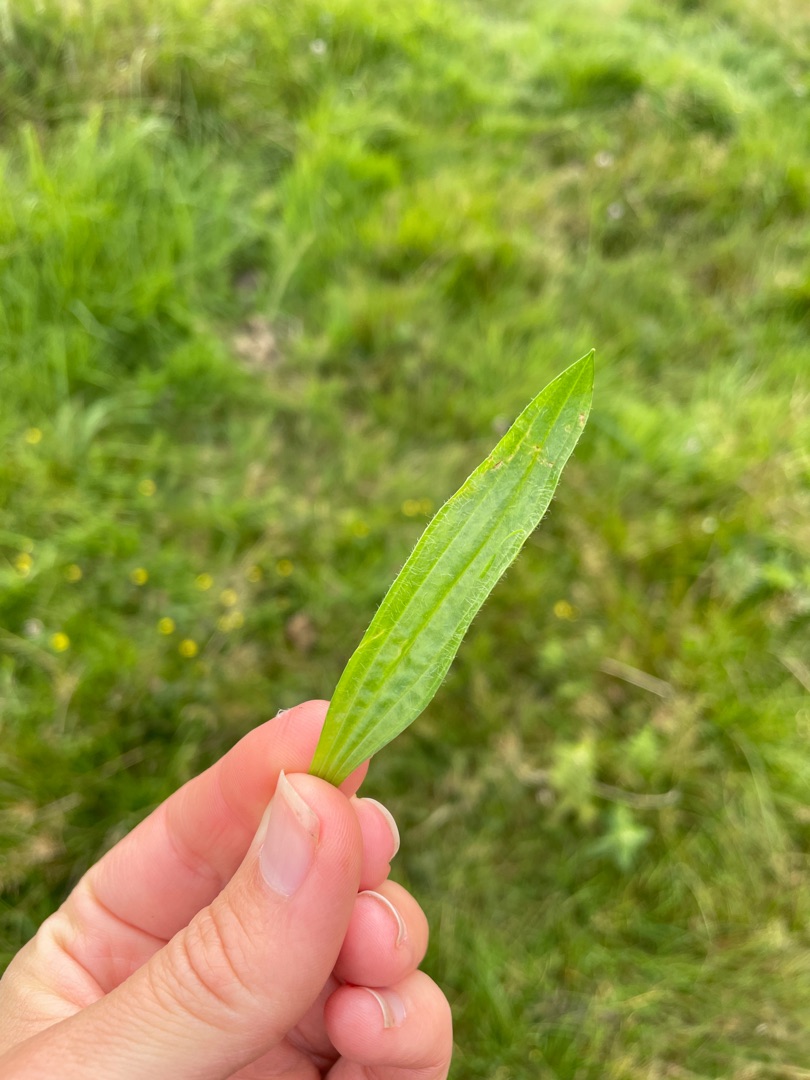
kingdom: Plantae
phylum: Tracheophyta
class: Magnoliopsida
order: Lamiales
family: Plantaginaceae
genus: Plantago
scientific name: Plantago lanceolata
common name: Lancet-vejbred
